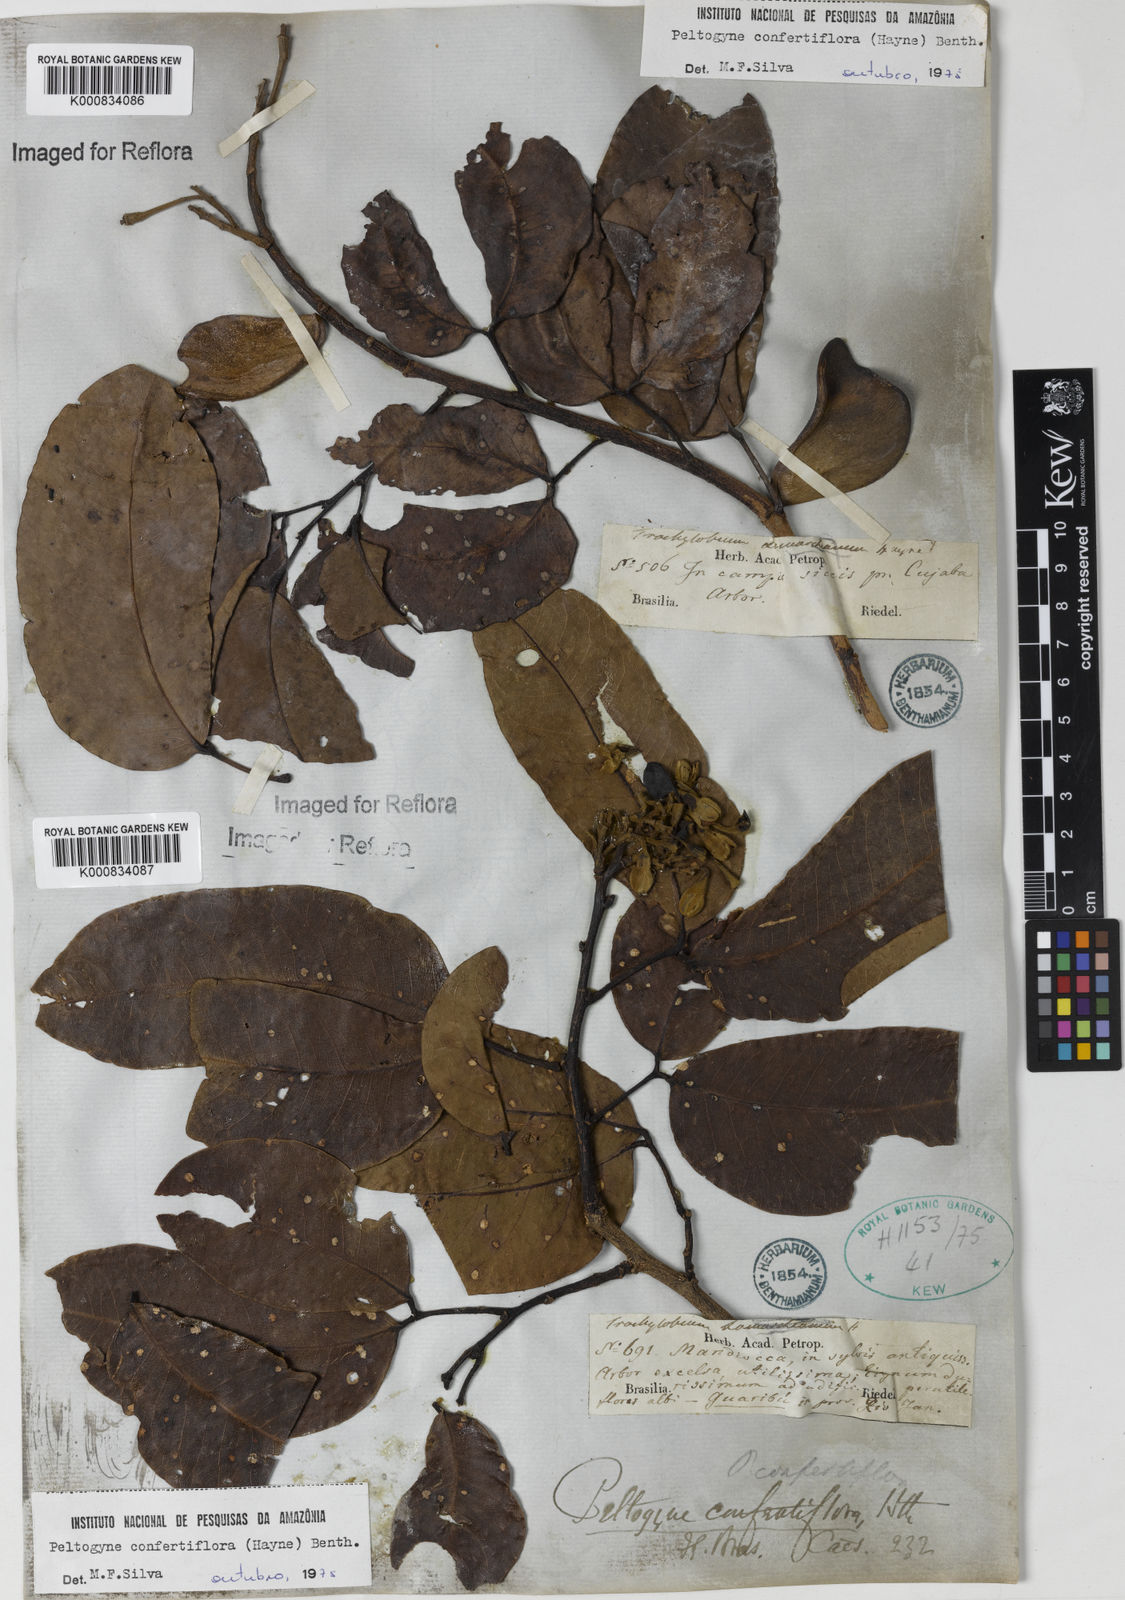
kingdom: Plantae
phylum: Tracheophyta
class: Magnoliopsida
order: Fabales
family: Fabaceae
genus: Peltogyne
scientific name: Peltogyne confertiflora
